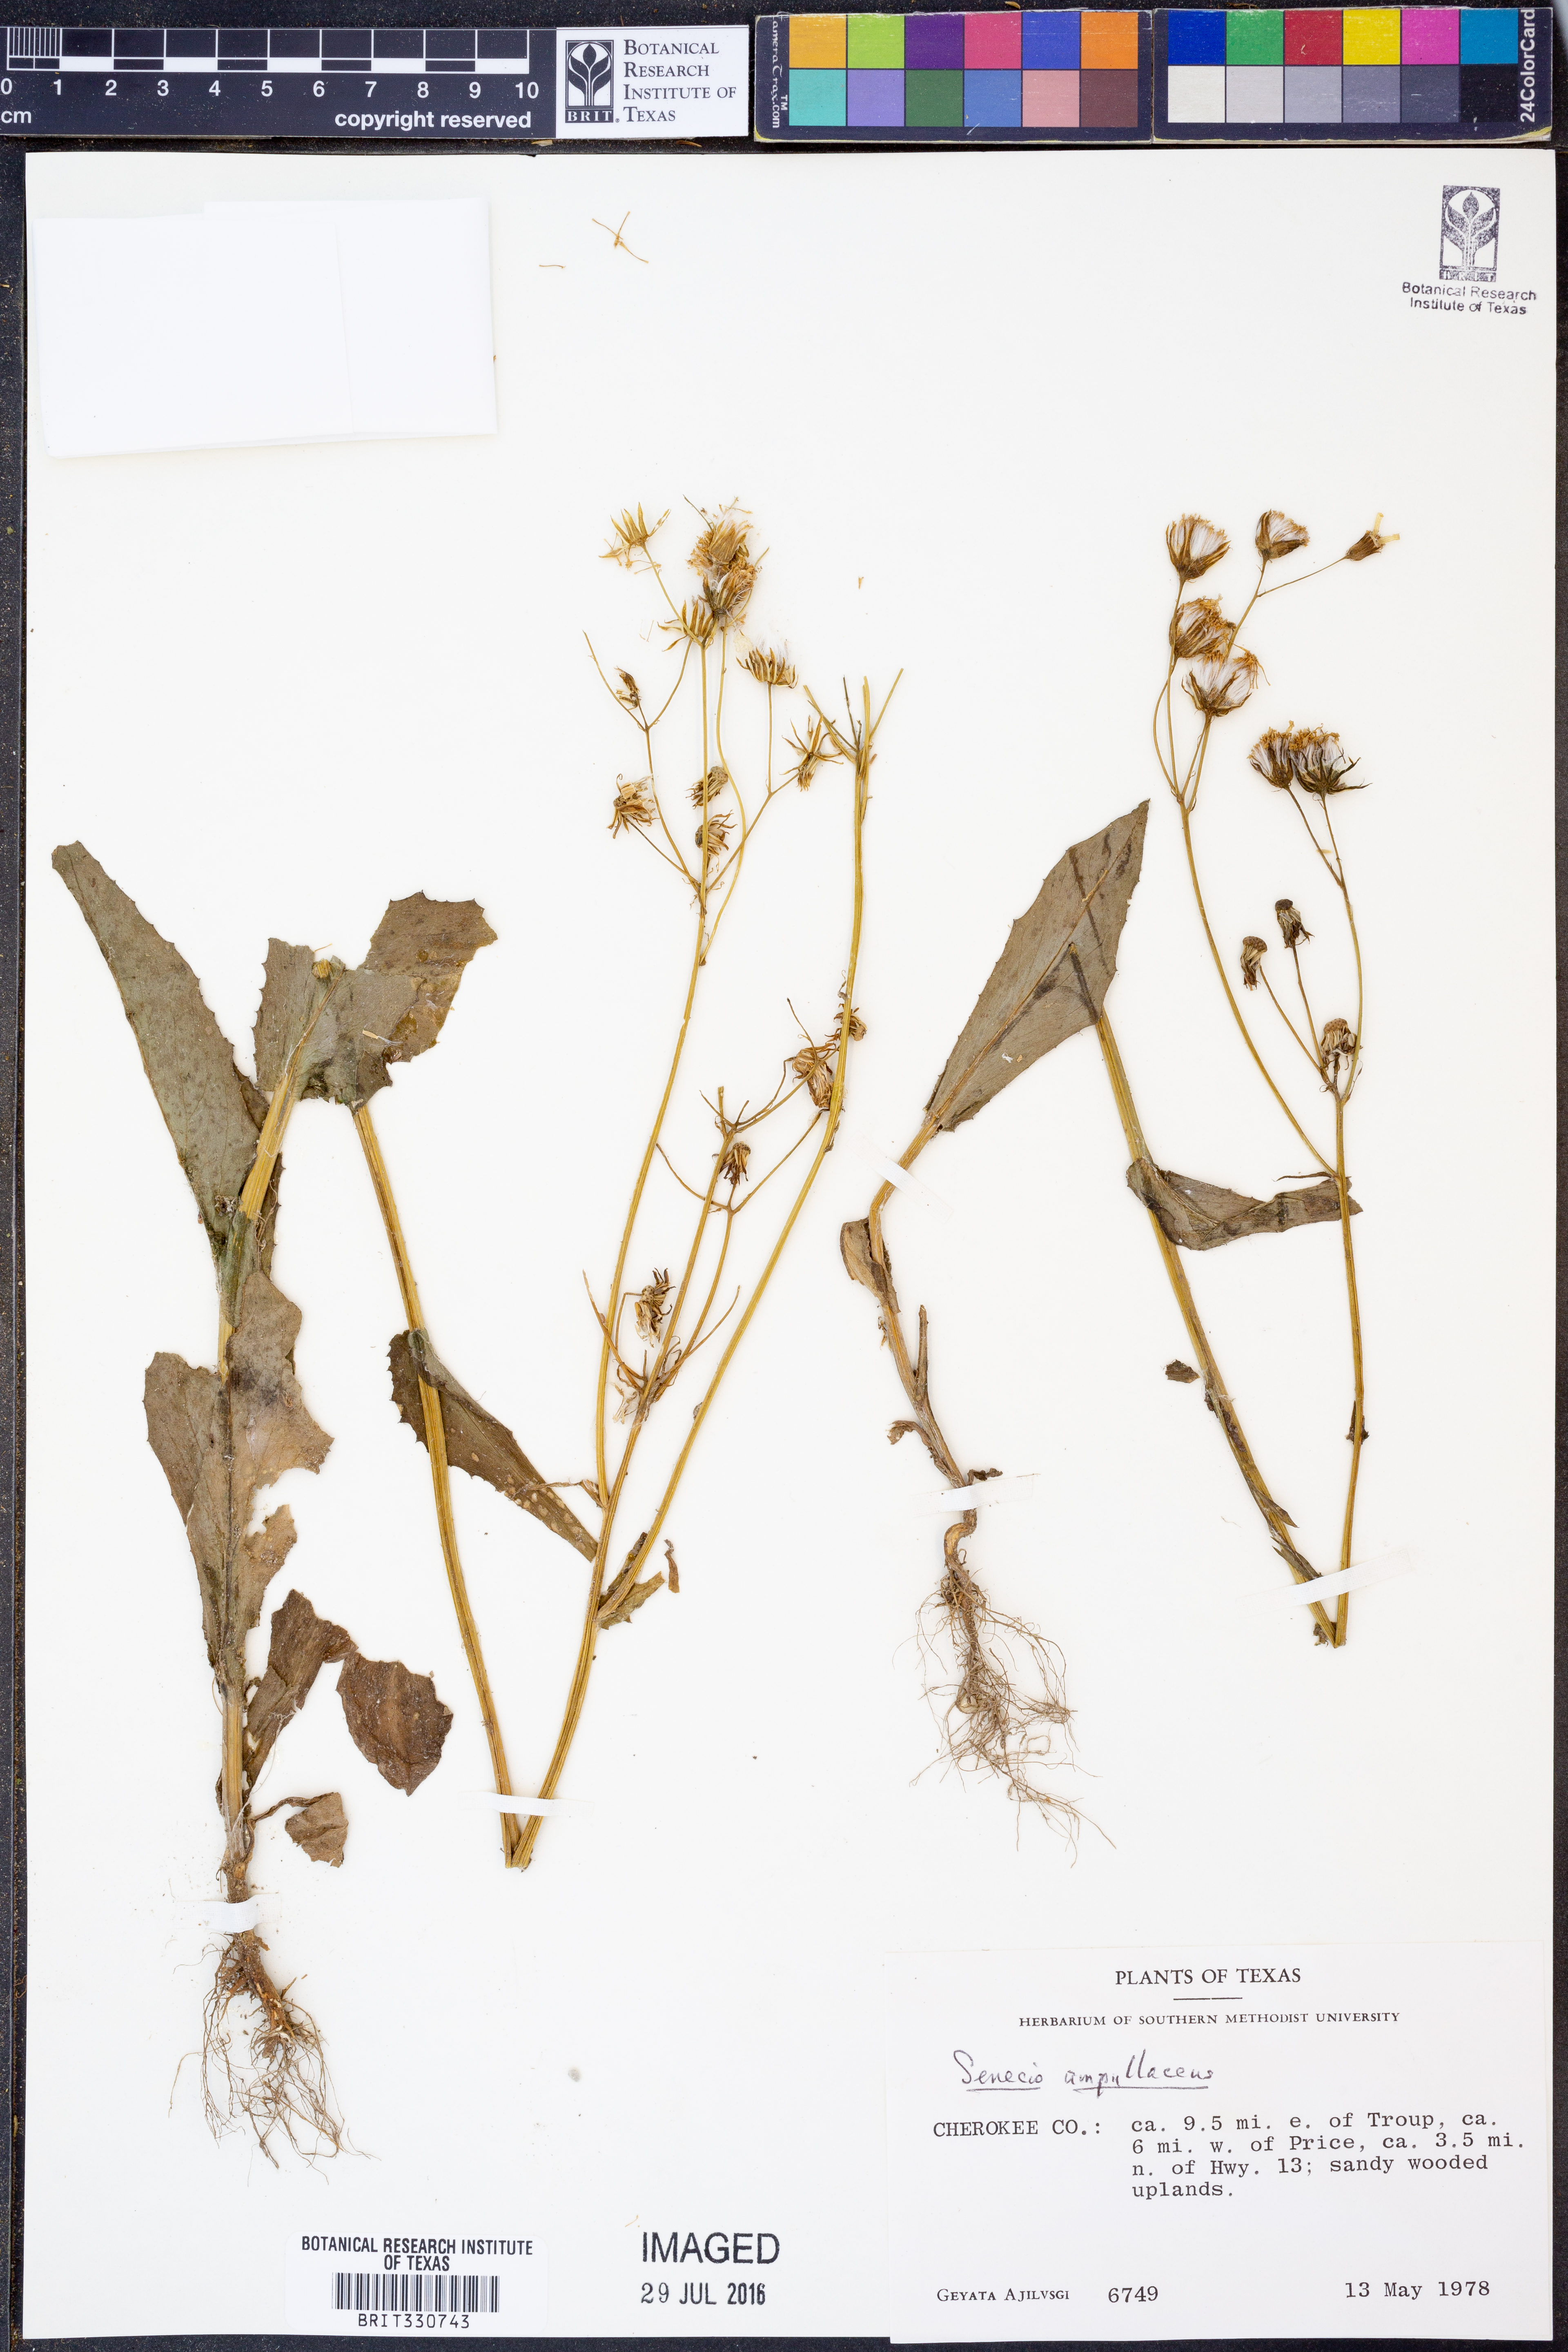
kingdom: Plantae
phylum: Tracheophyta
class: Magnoliopsida
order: Asterales
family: Asteraceae
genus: Senecio
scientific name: Senecio ampullaceus
